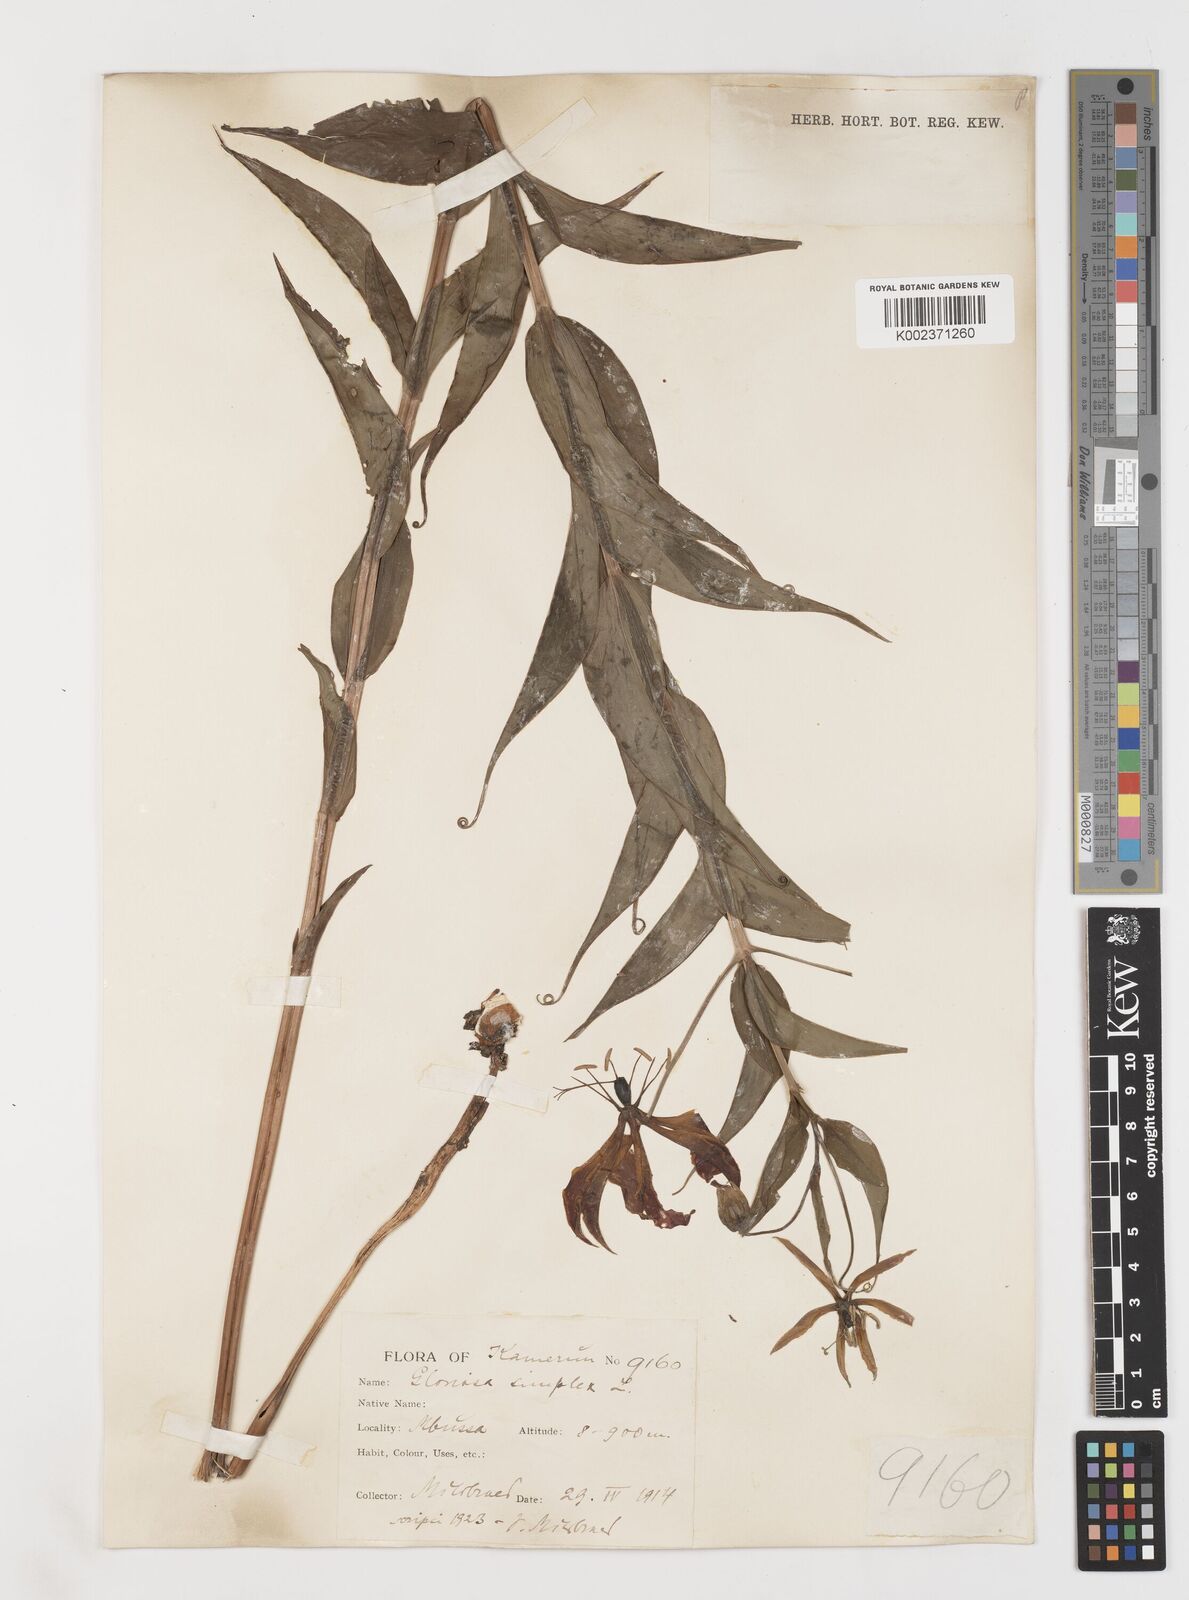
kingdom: Plantae
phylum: Tracheophyta
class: Liliopsida
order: Liliales
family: Colchicaceae
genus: Gloriosa
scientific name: Gloriosa simplex
